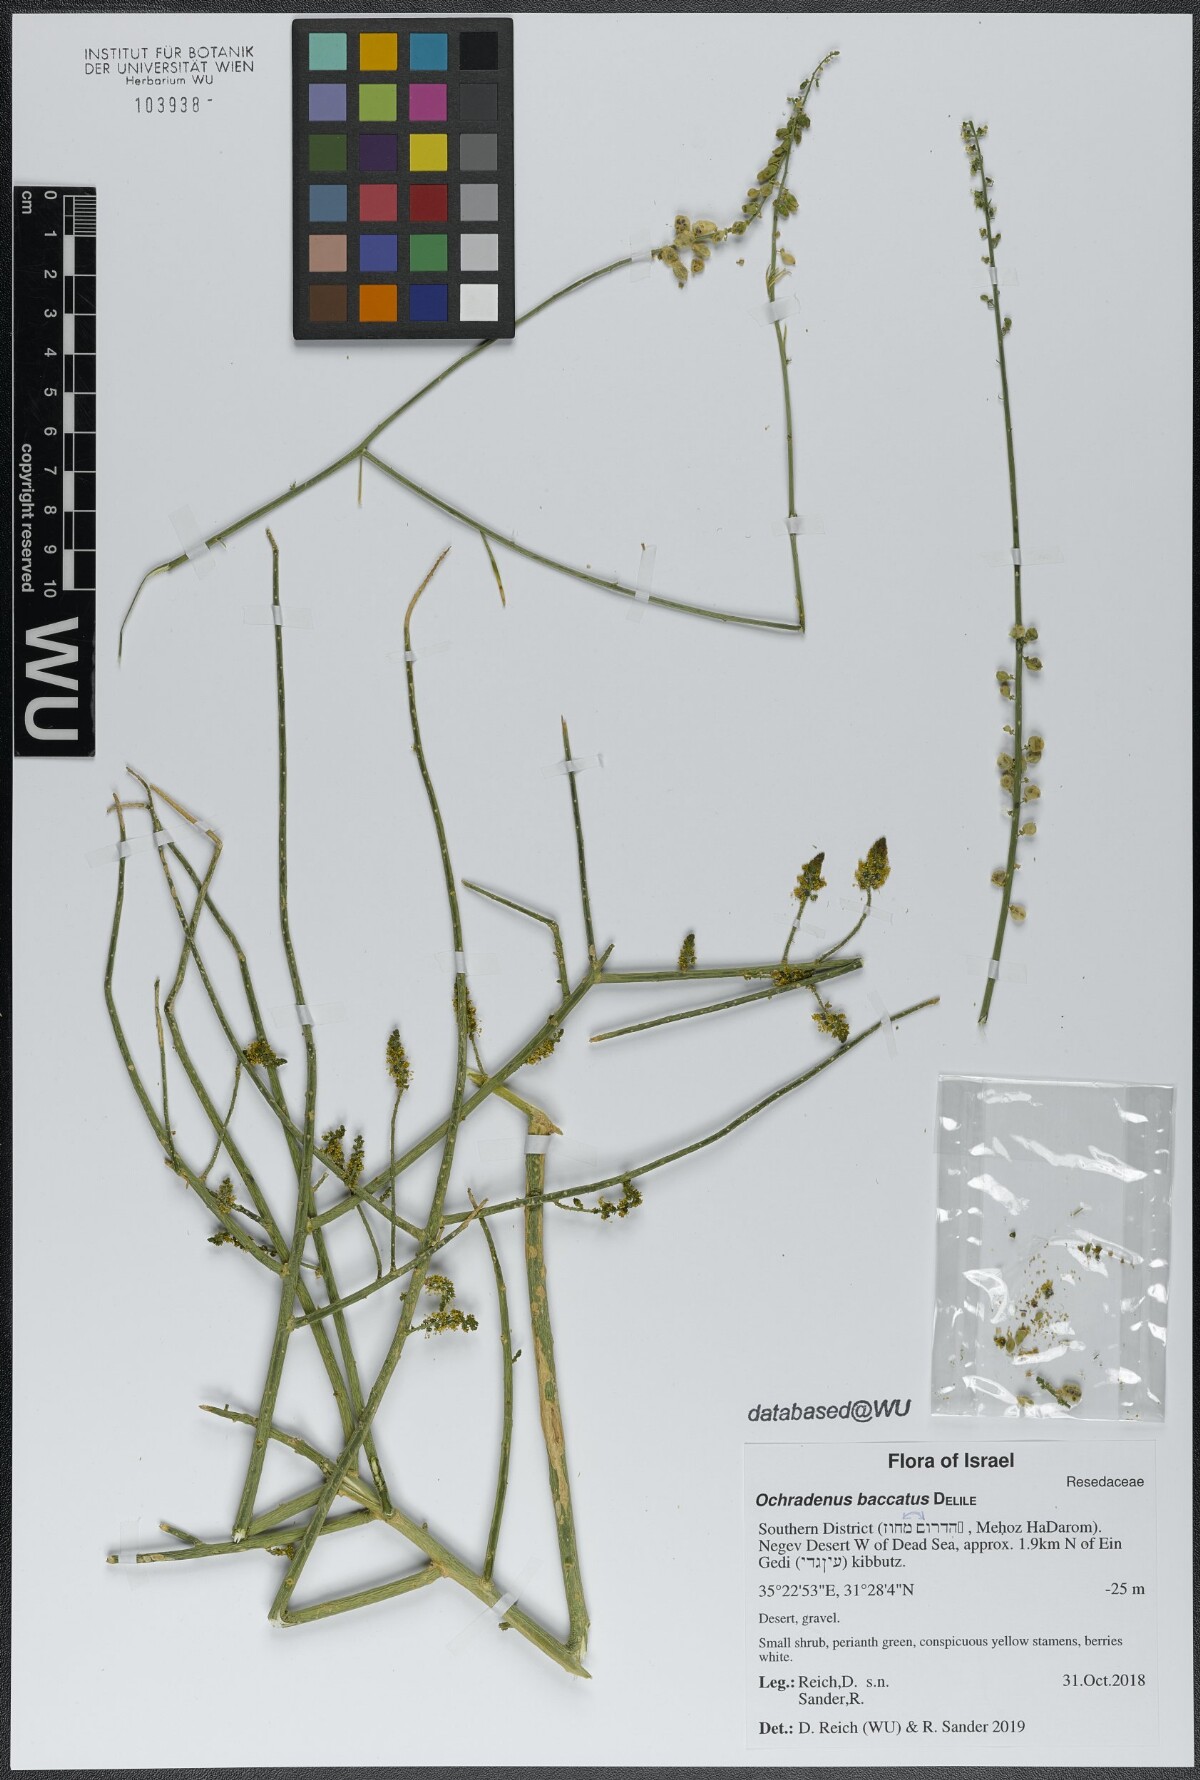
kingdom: Plantae
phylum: Tracheophyta
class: Magnoliopsida
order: Brassicales
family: Resedaceae
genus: Ochradenus
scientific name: Ochradenus baccatus
